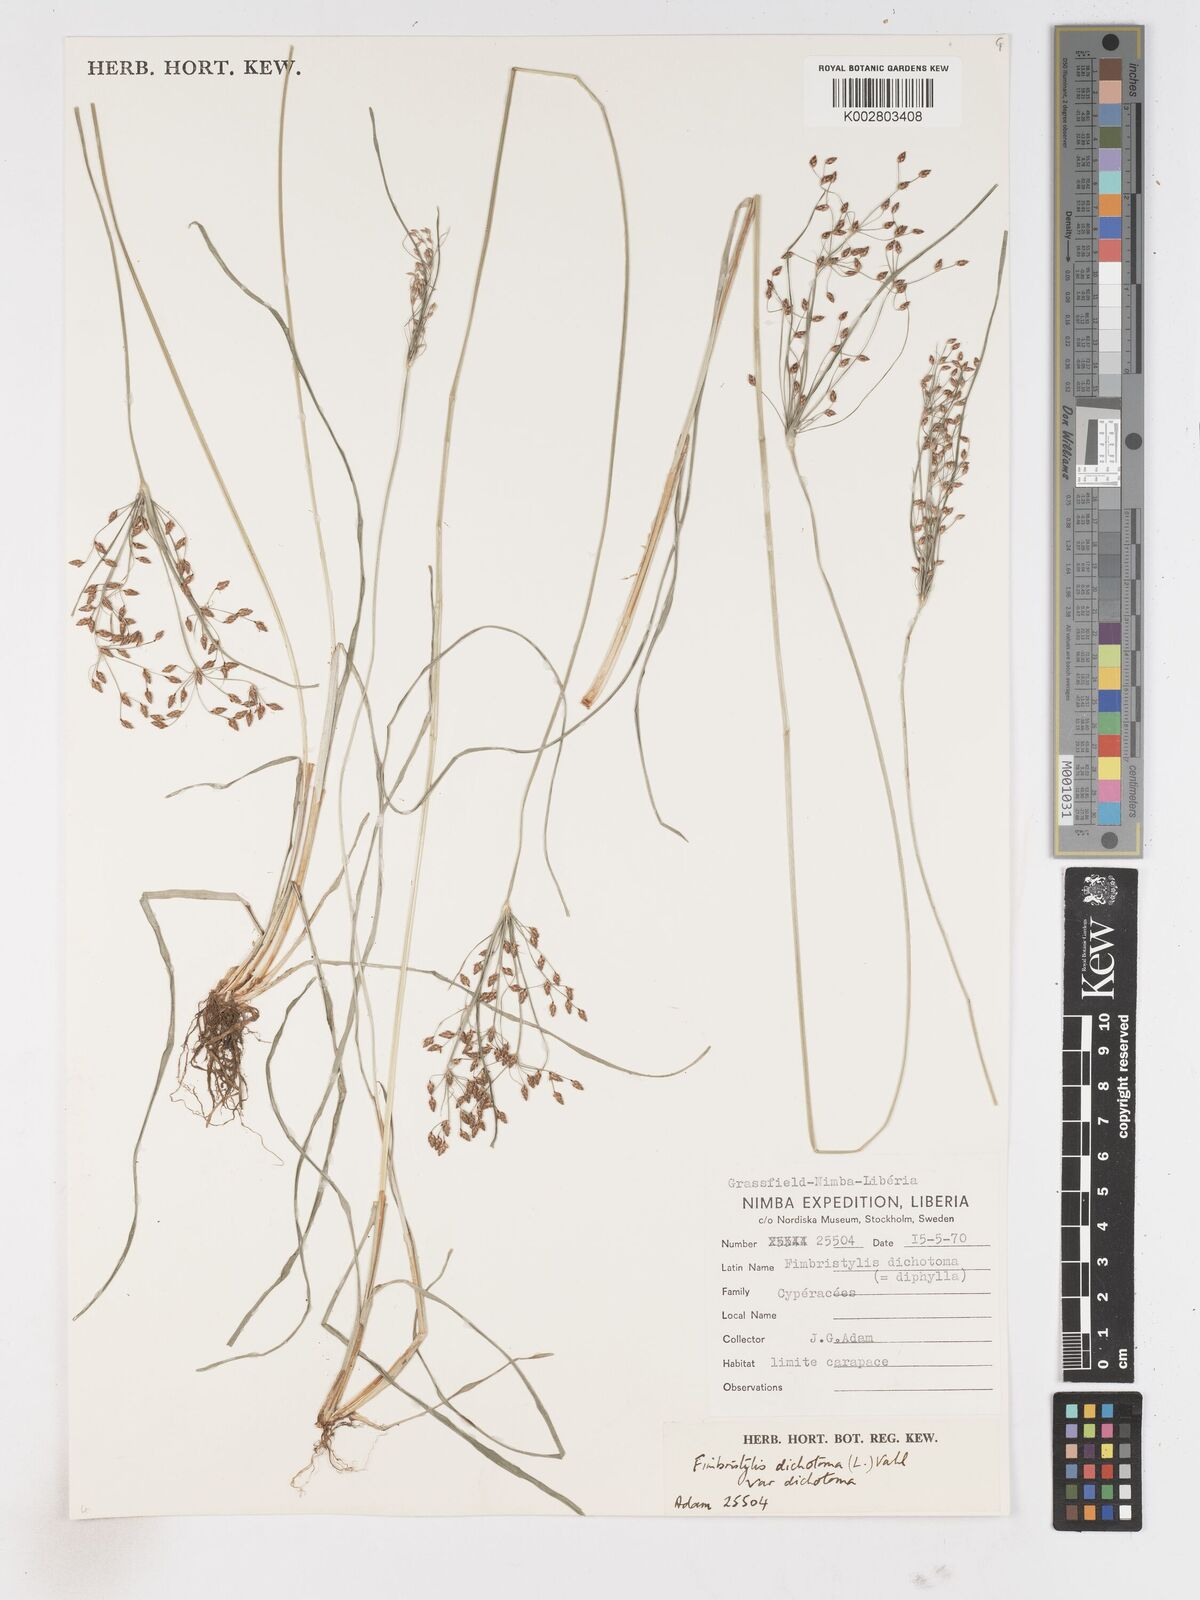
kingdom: Plantae
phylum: Tracheophyta
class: Liliopsida
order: Poales
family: Cyperaceae
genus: Fimbristylis
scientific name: Fimbristylis dichotoma
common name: Forked fimbry
